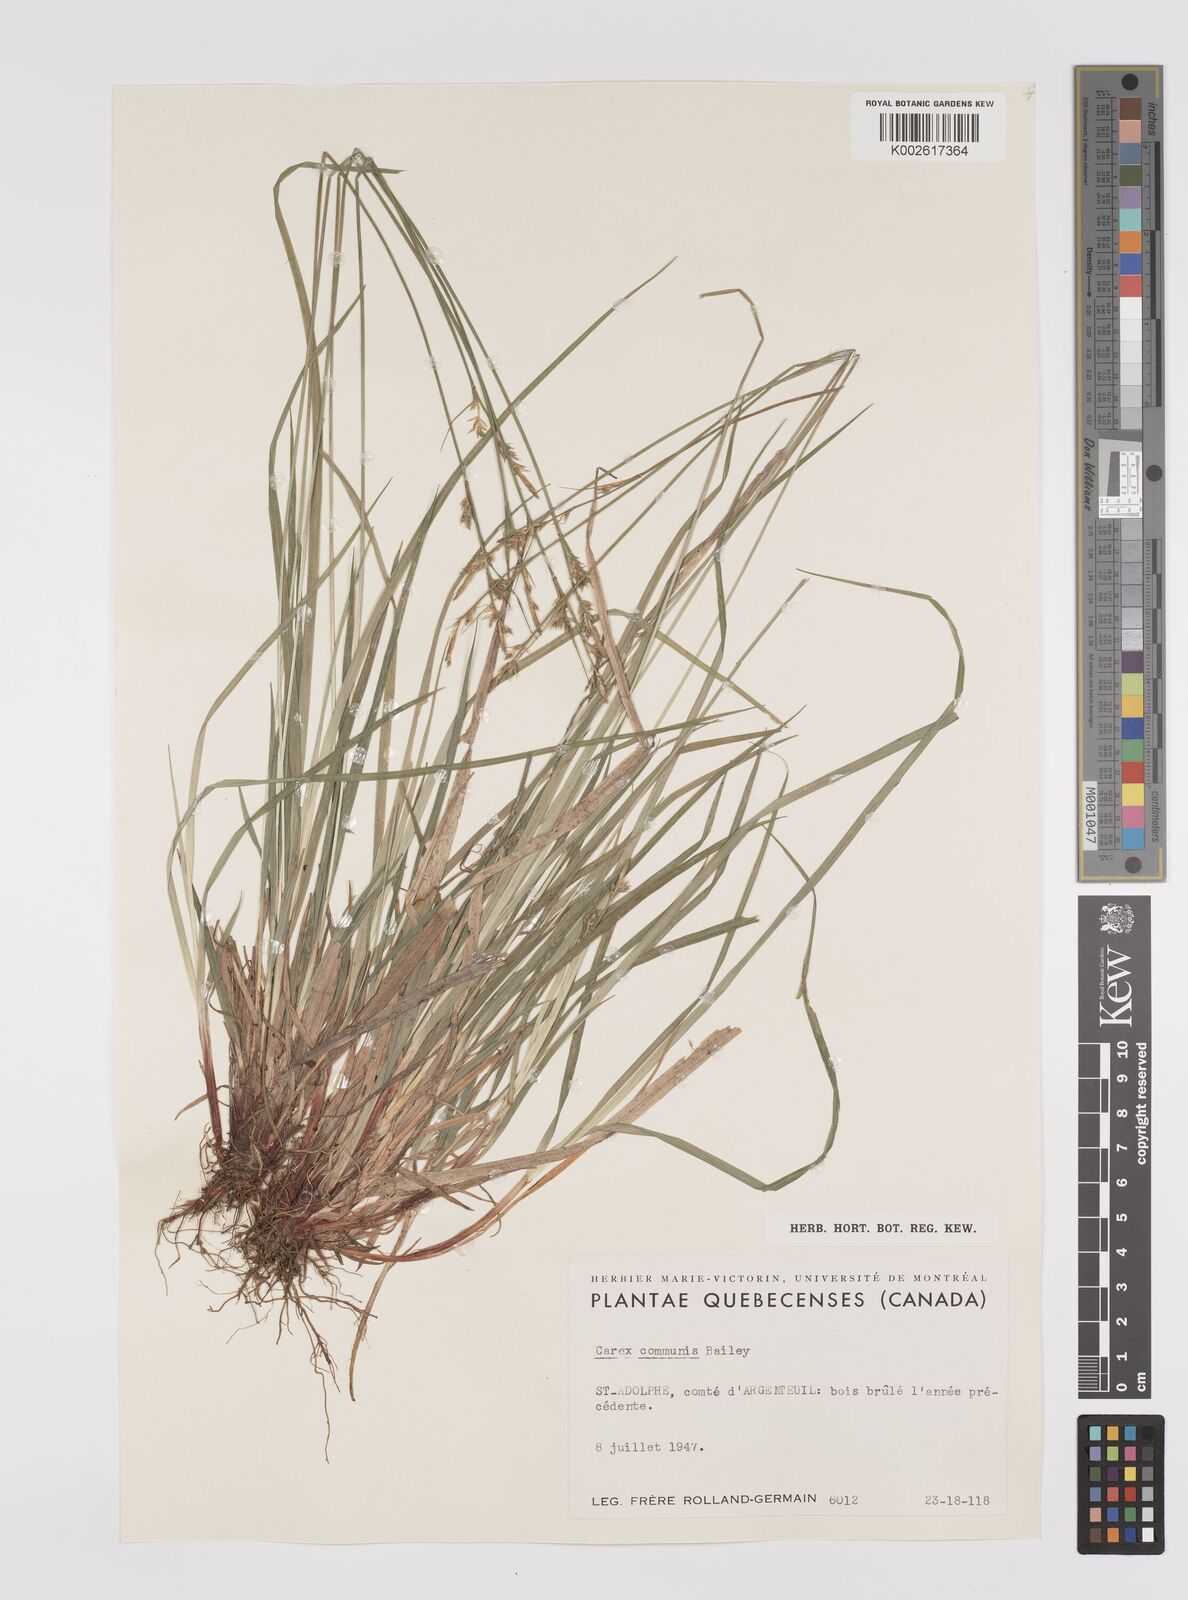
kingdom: Plantae
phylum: Tracheophyta
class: Liliopsida
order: Poales
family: Cyperaceae
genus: Carex
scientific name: Carex communis
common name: Colonial oak sedge
